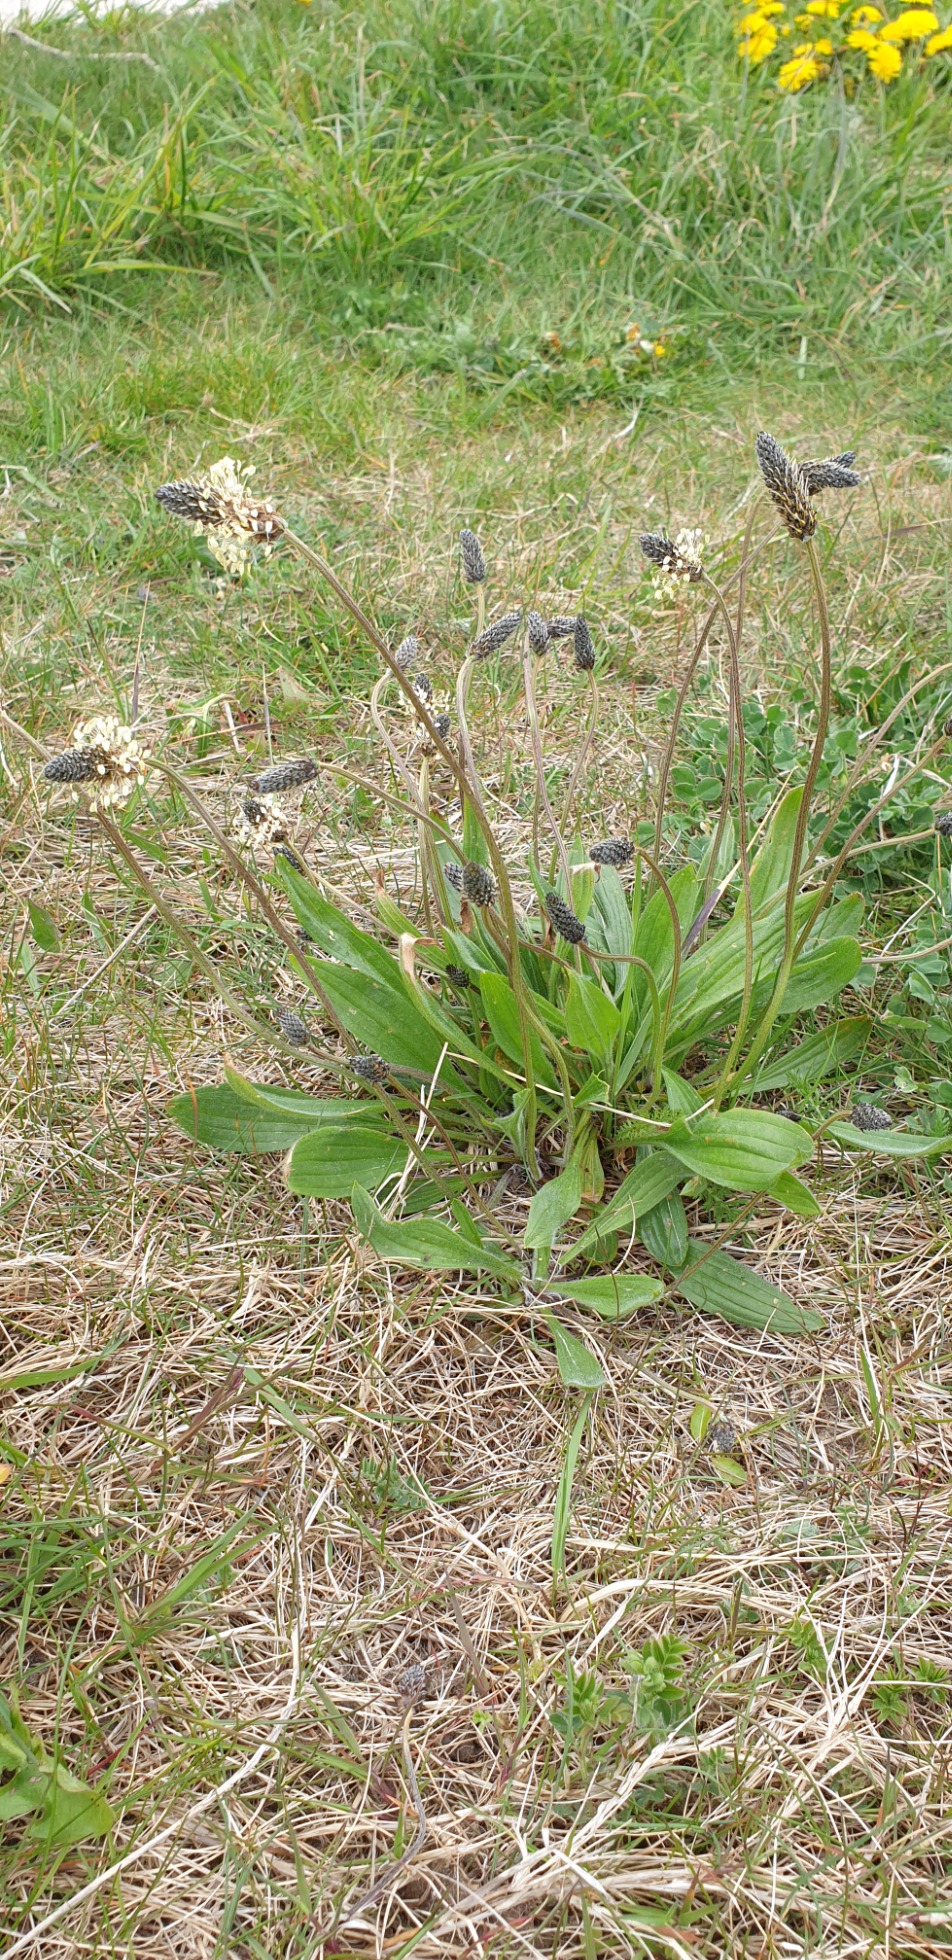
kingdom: Plantae
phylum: Tracheophyta
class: Magnoliopsida
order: Lamiales
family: Plantaginaceae
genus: Plantago
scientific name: Plantago lanceolata
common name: Lancet-vejbred
